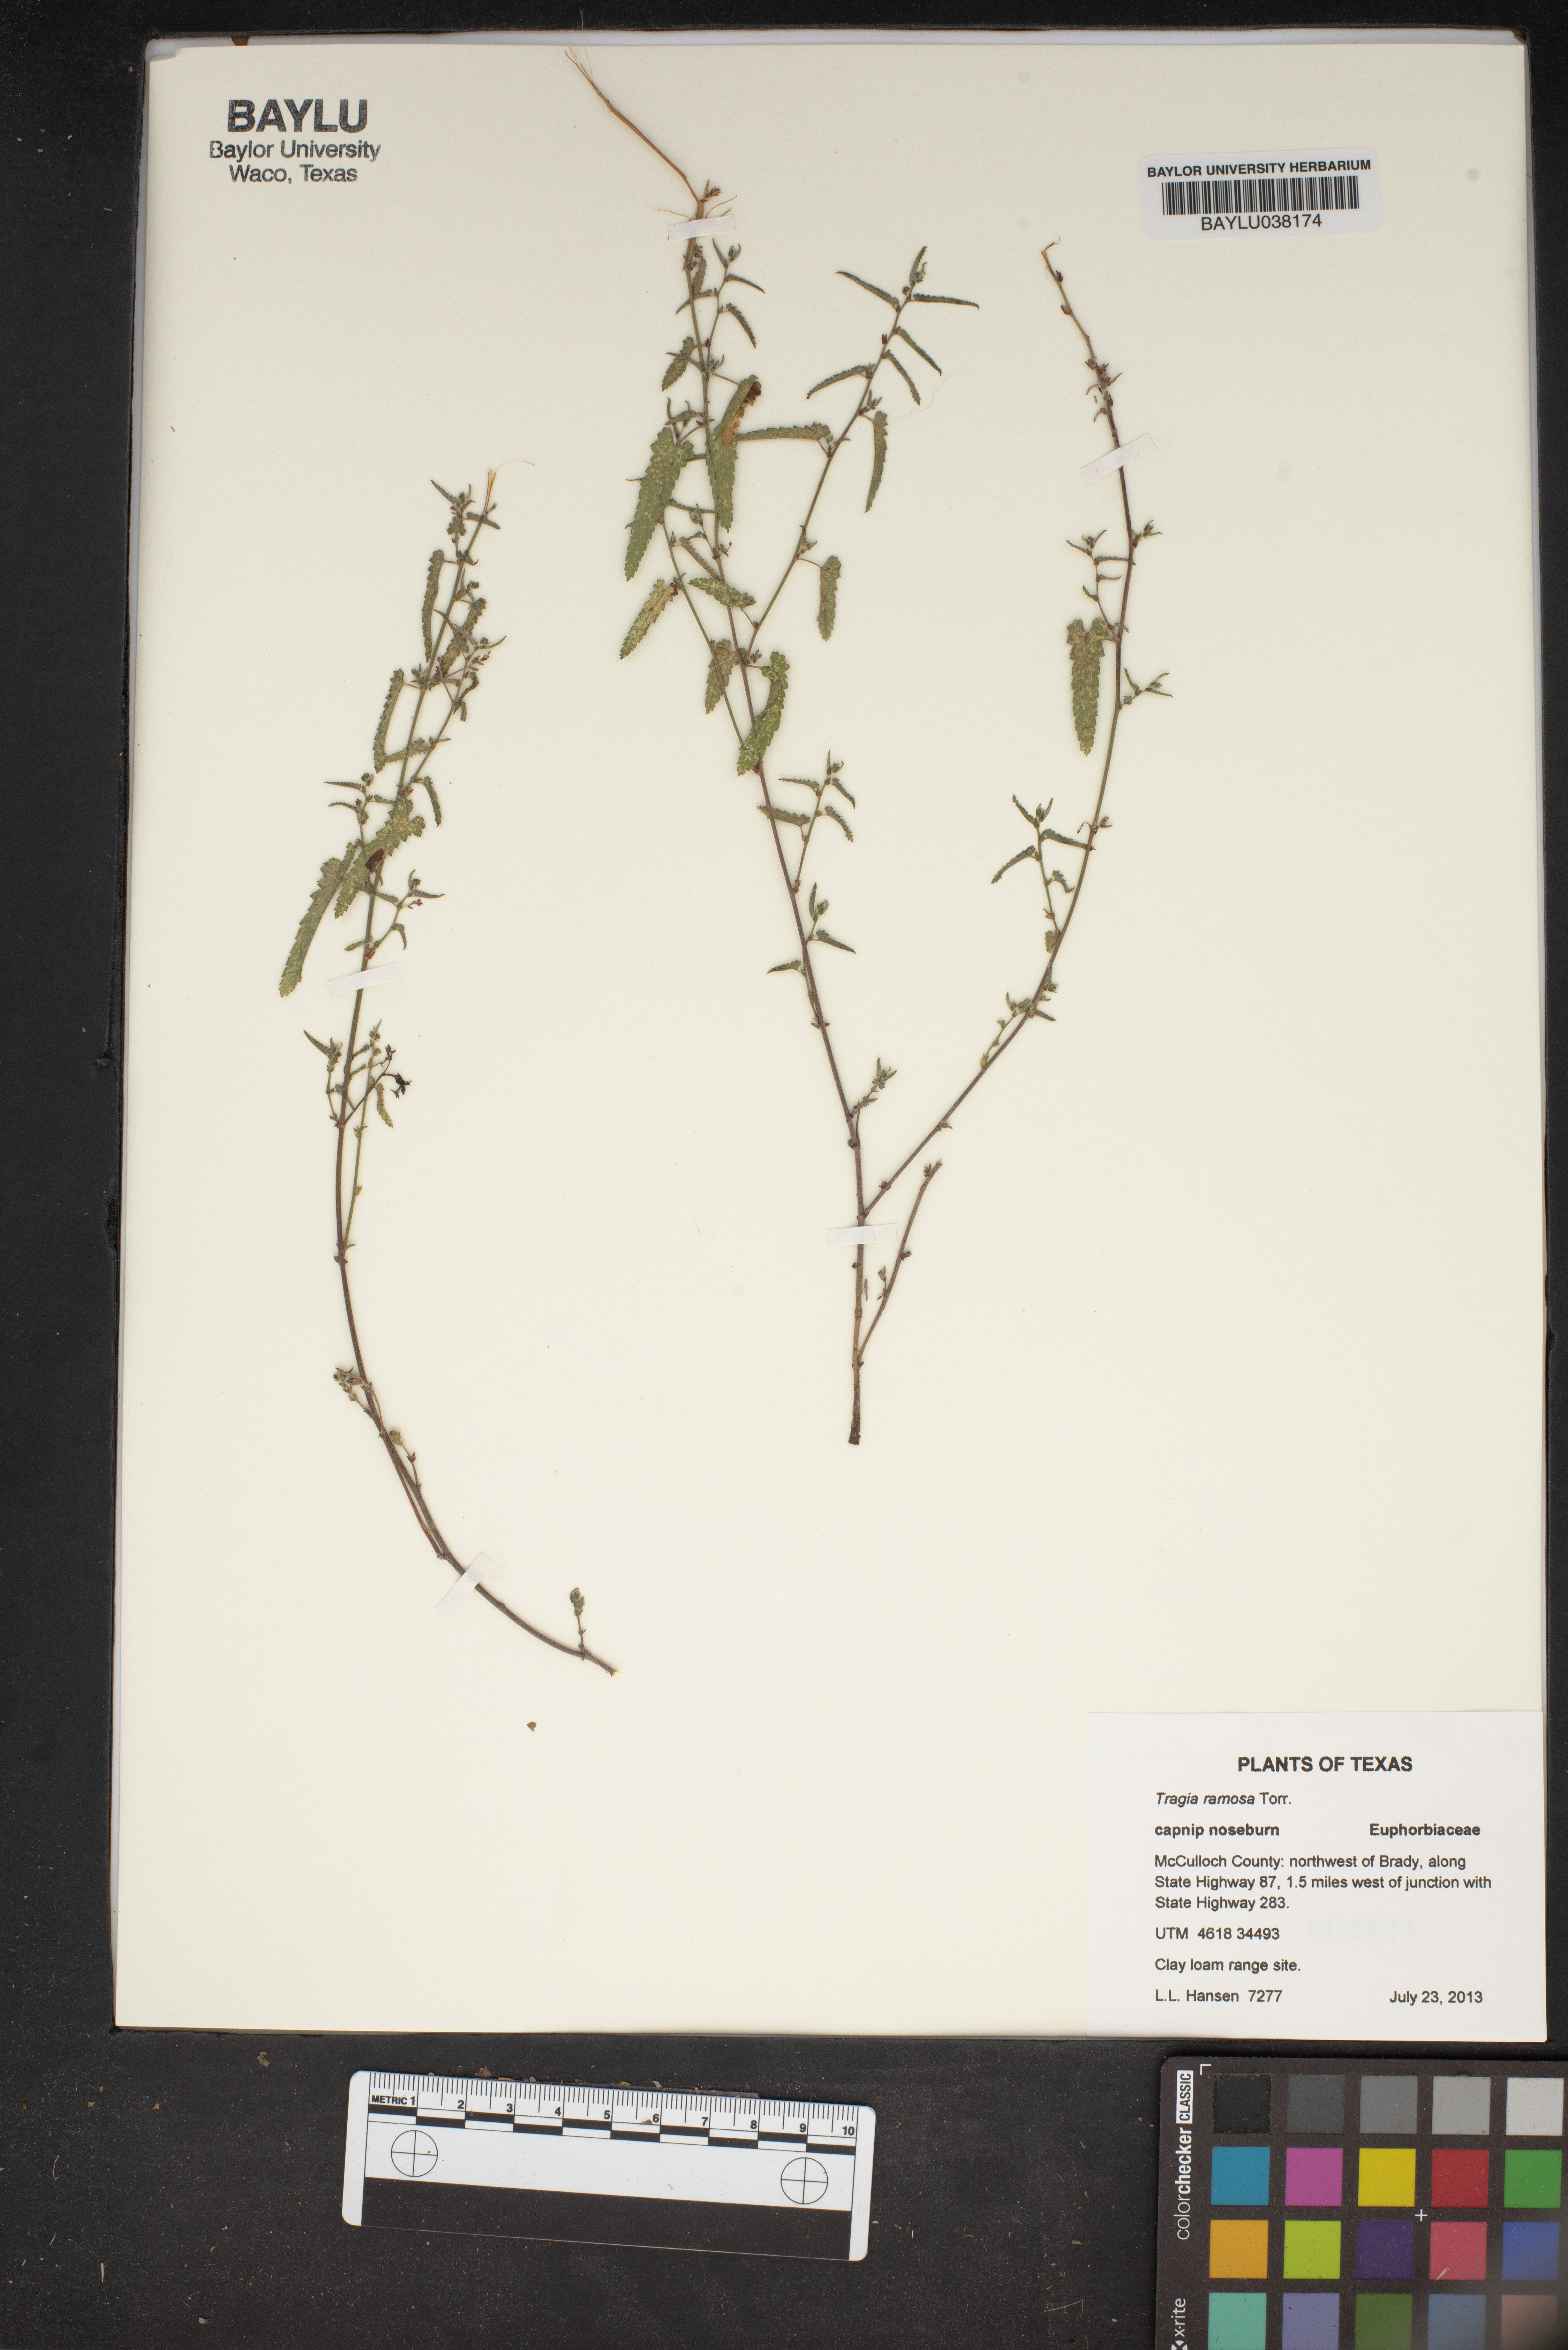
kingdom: Plantae
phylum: Tracheophyta
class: Magnoliopsida
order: Malpighiales
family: Euphorbiaceae
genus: Tragia
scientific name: Tragia ramosa
